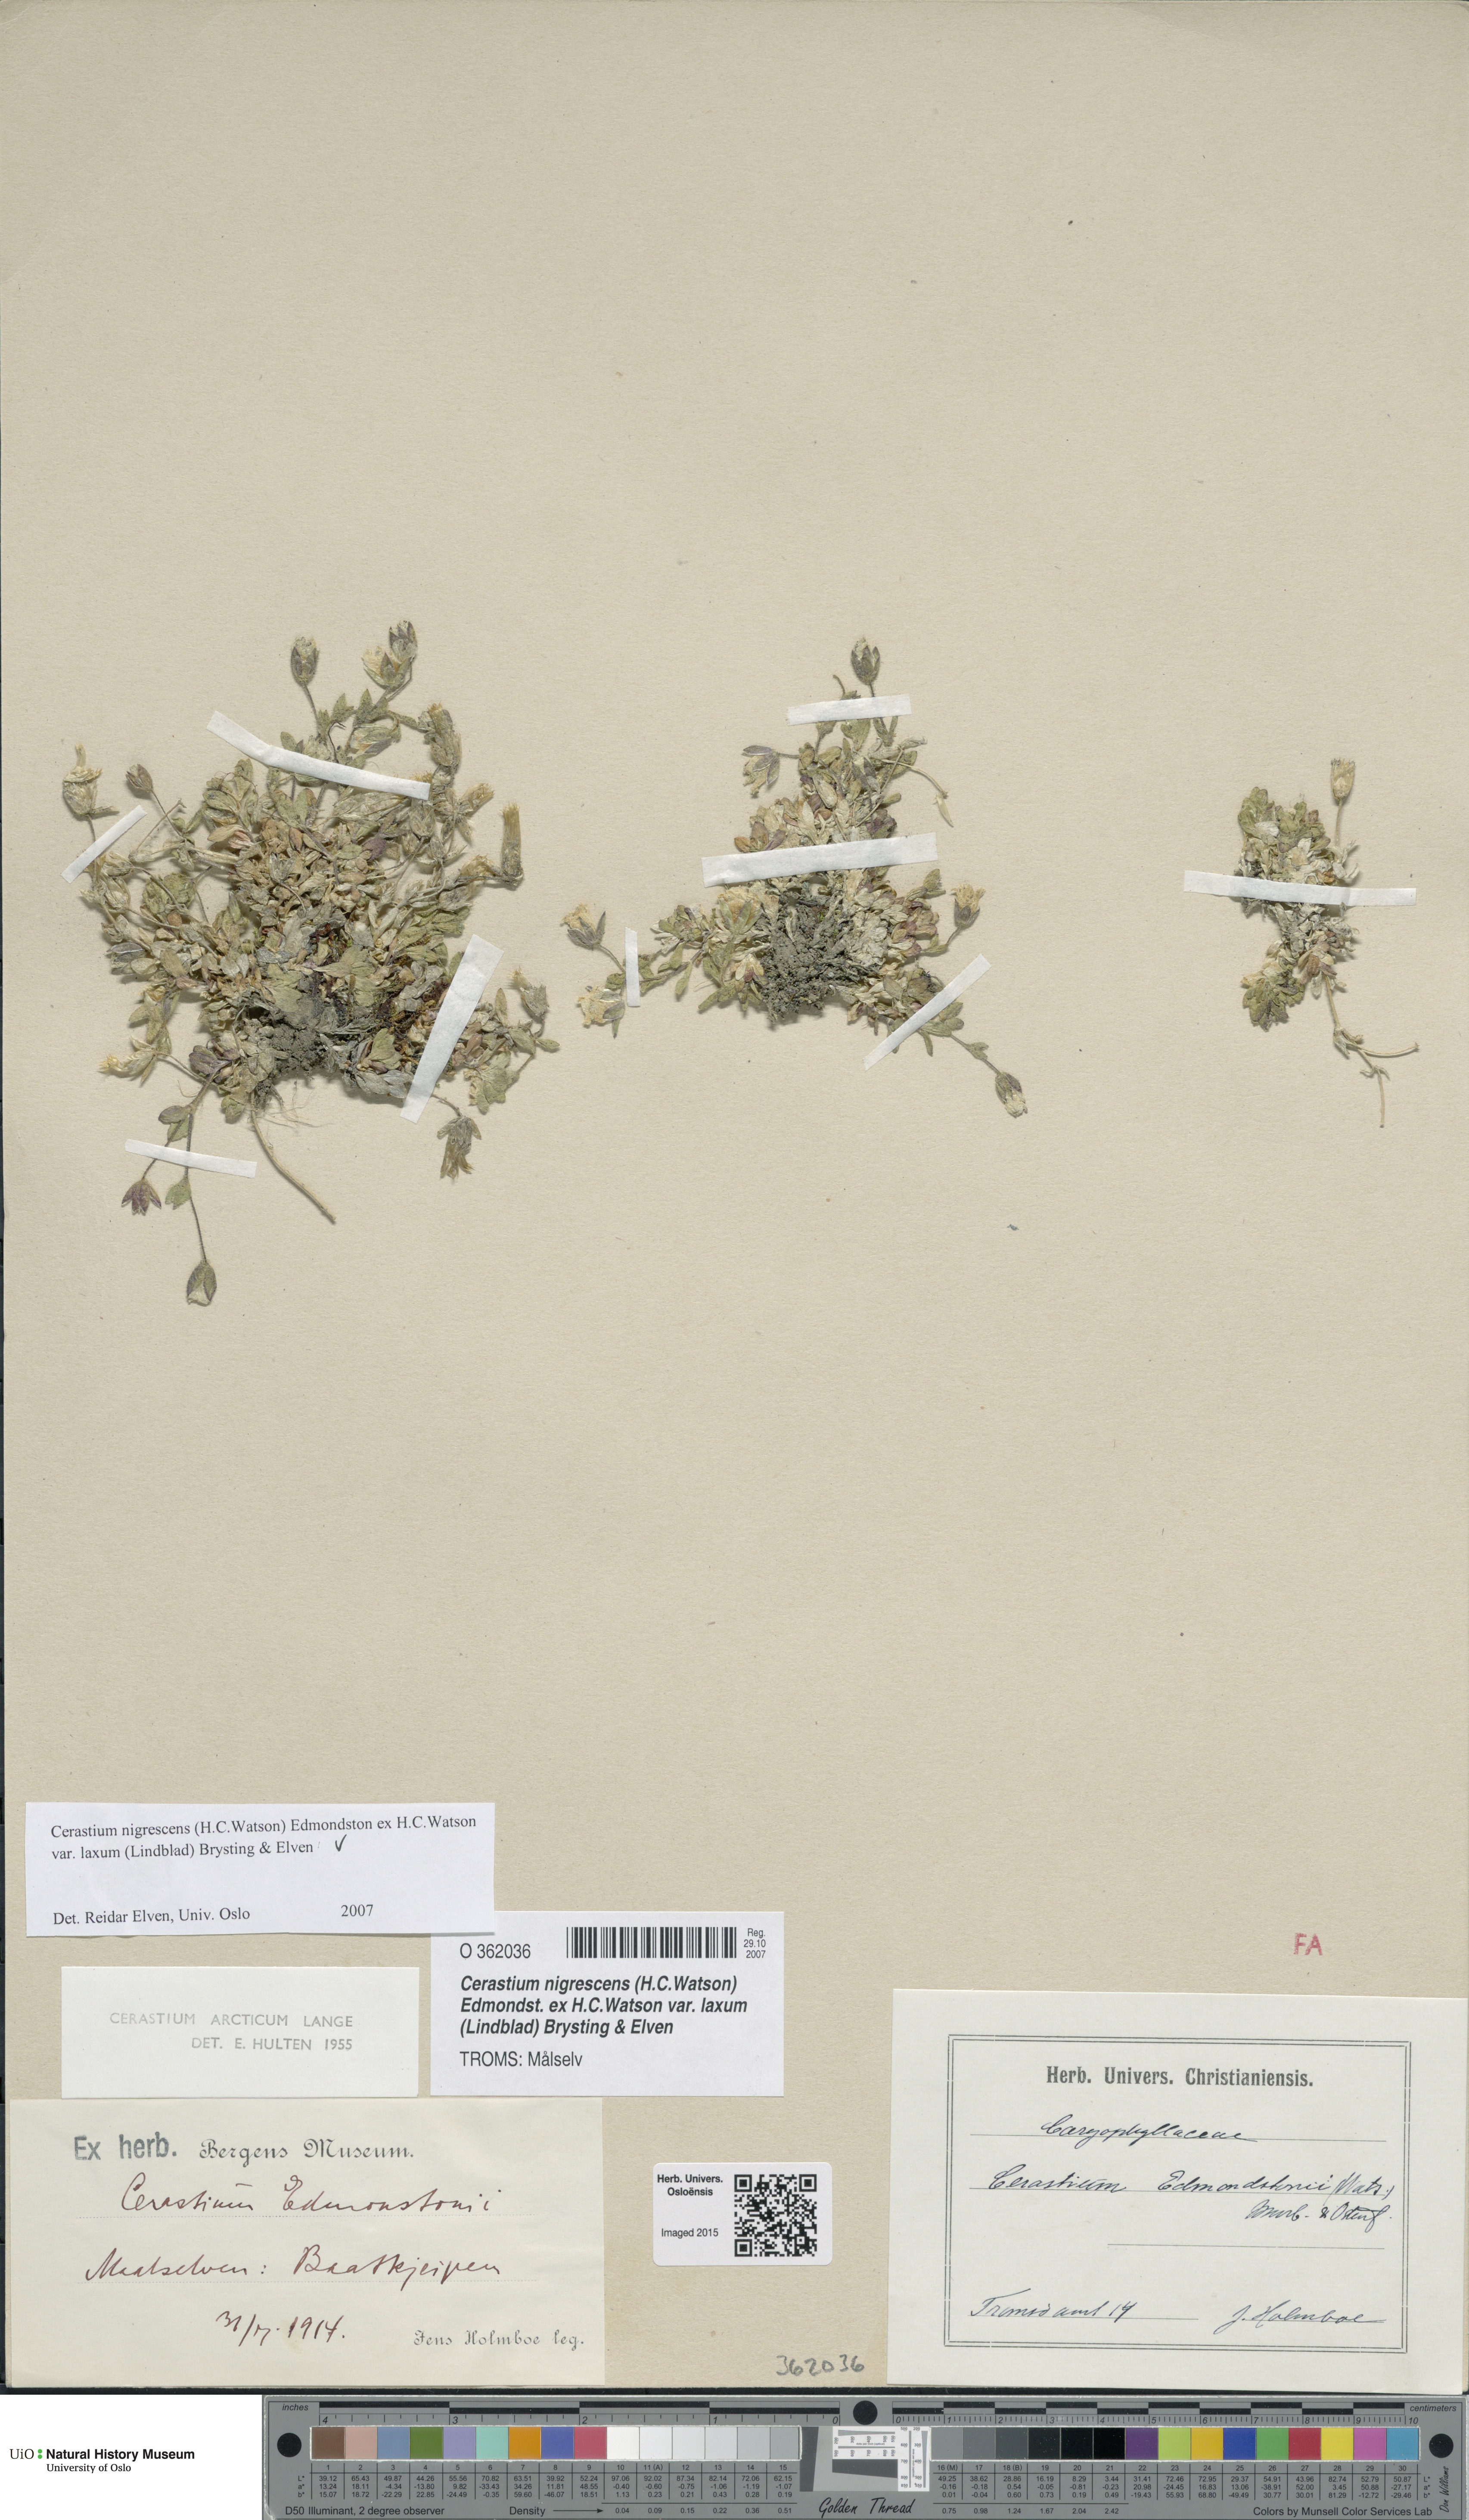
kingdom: Plantae
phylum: Tracheophyta
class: Magnoliopsida
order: Caryophyllales
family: Caryophyllaceae
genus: Cerastium
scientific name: Cerastium nigrescens
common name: Shetland mouse-ear
